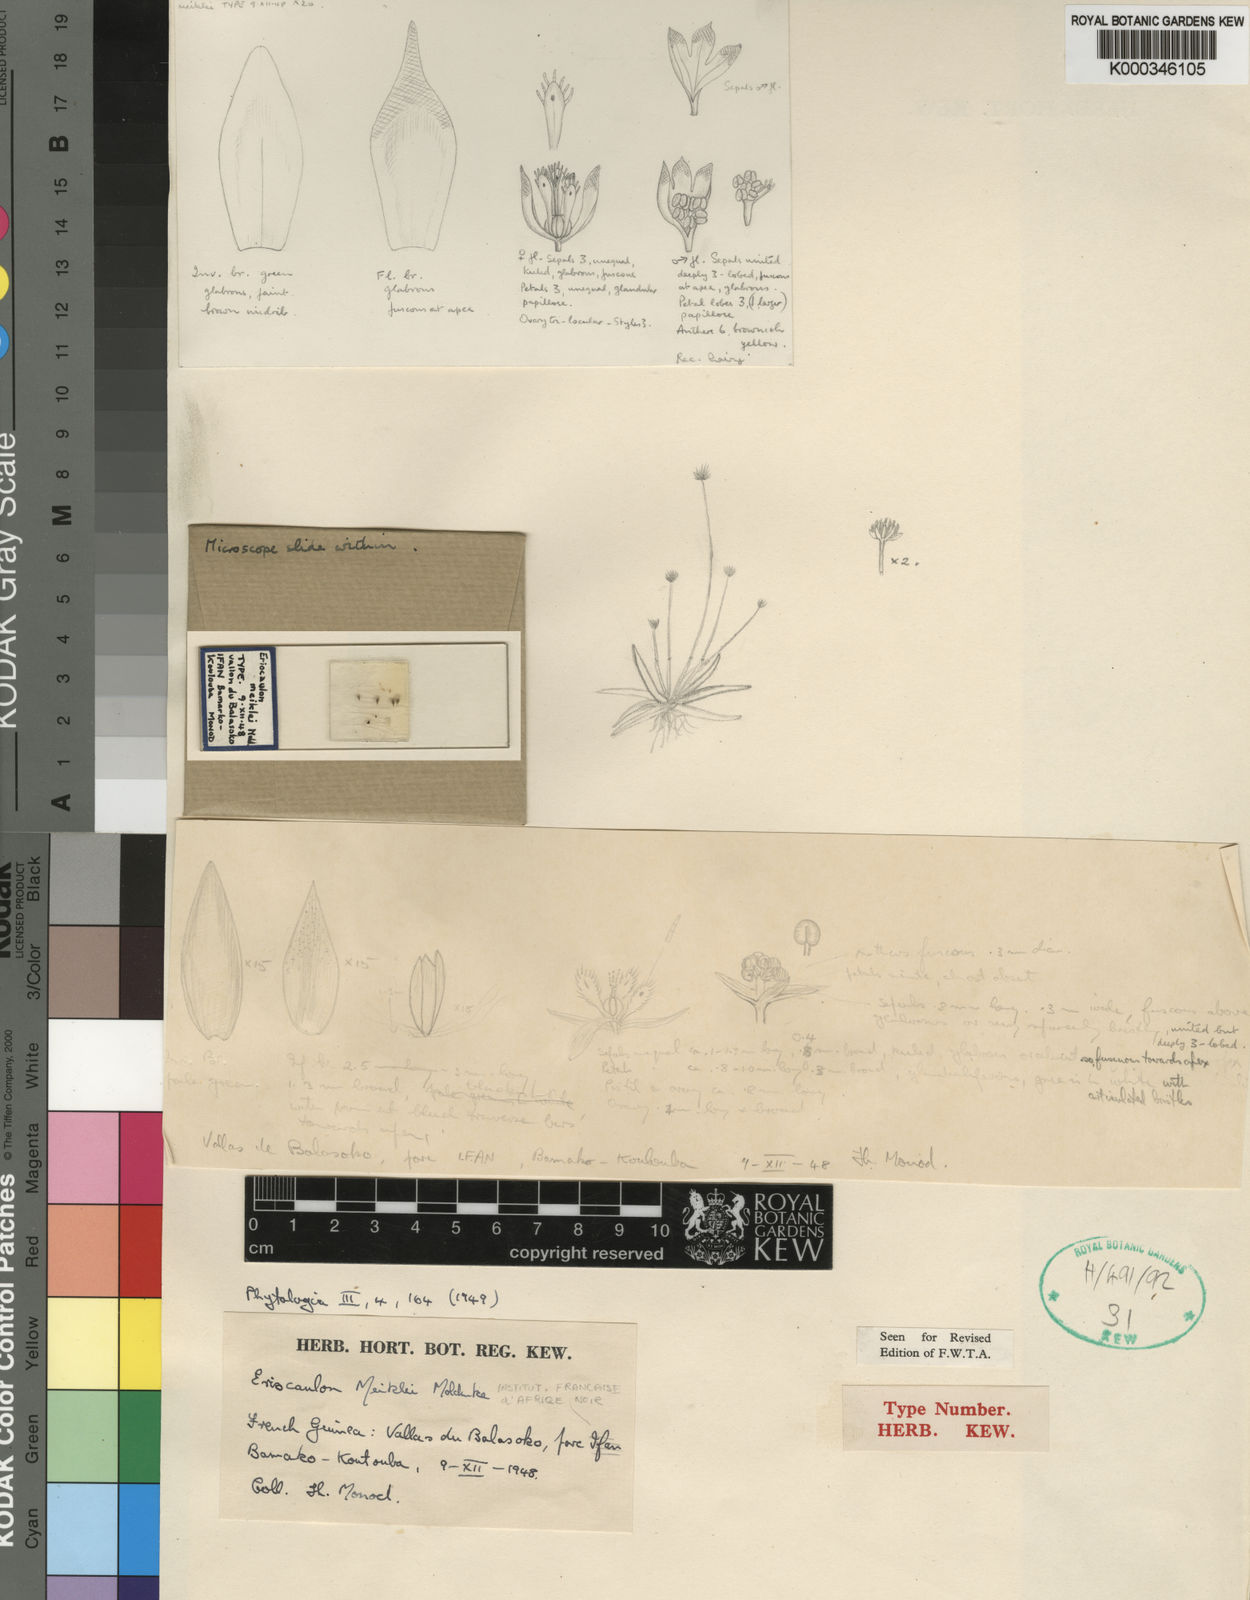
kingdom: Plantae
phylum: Tracheophyta
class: Liliopsida
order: Poales
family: Eriocaulaceae
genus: Eriocaulon
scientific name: Eriocaulon meiklei
